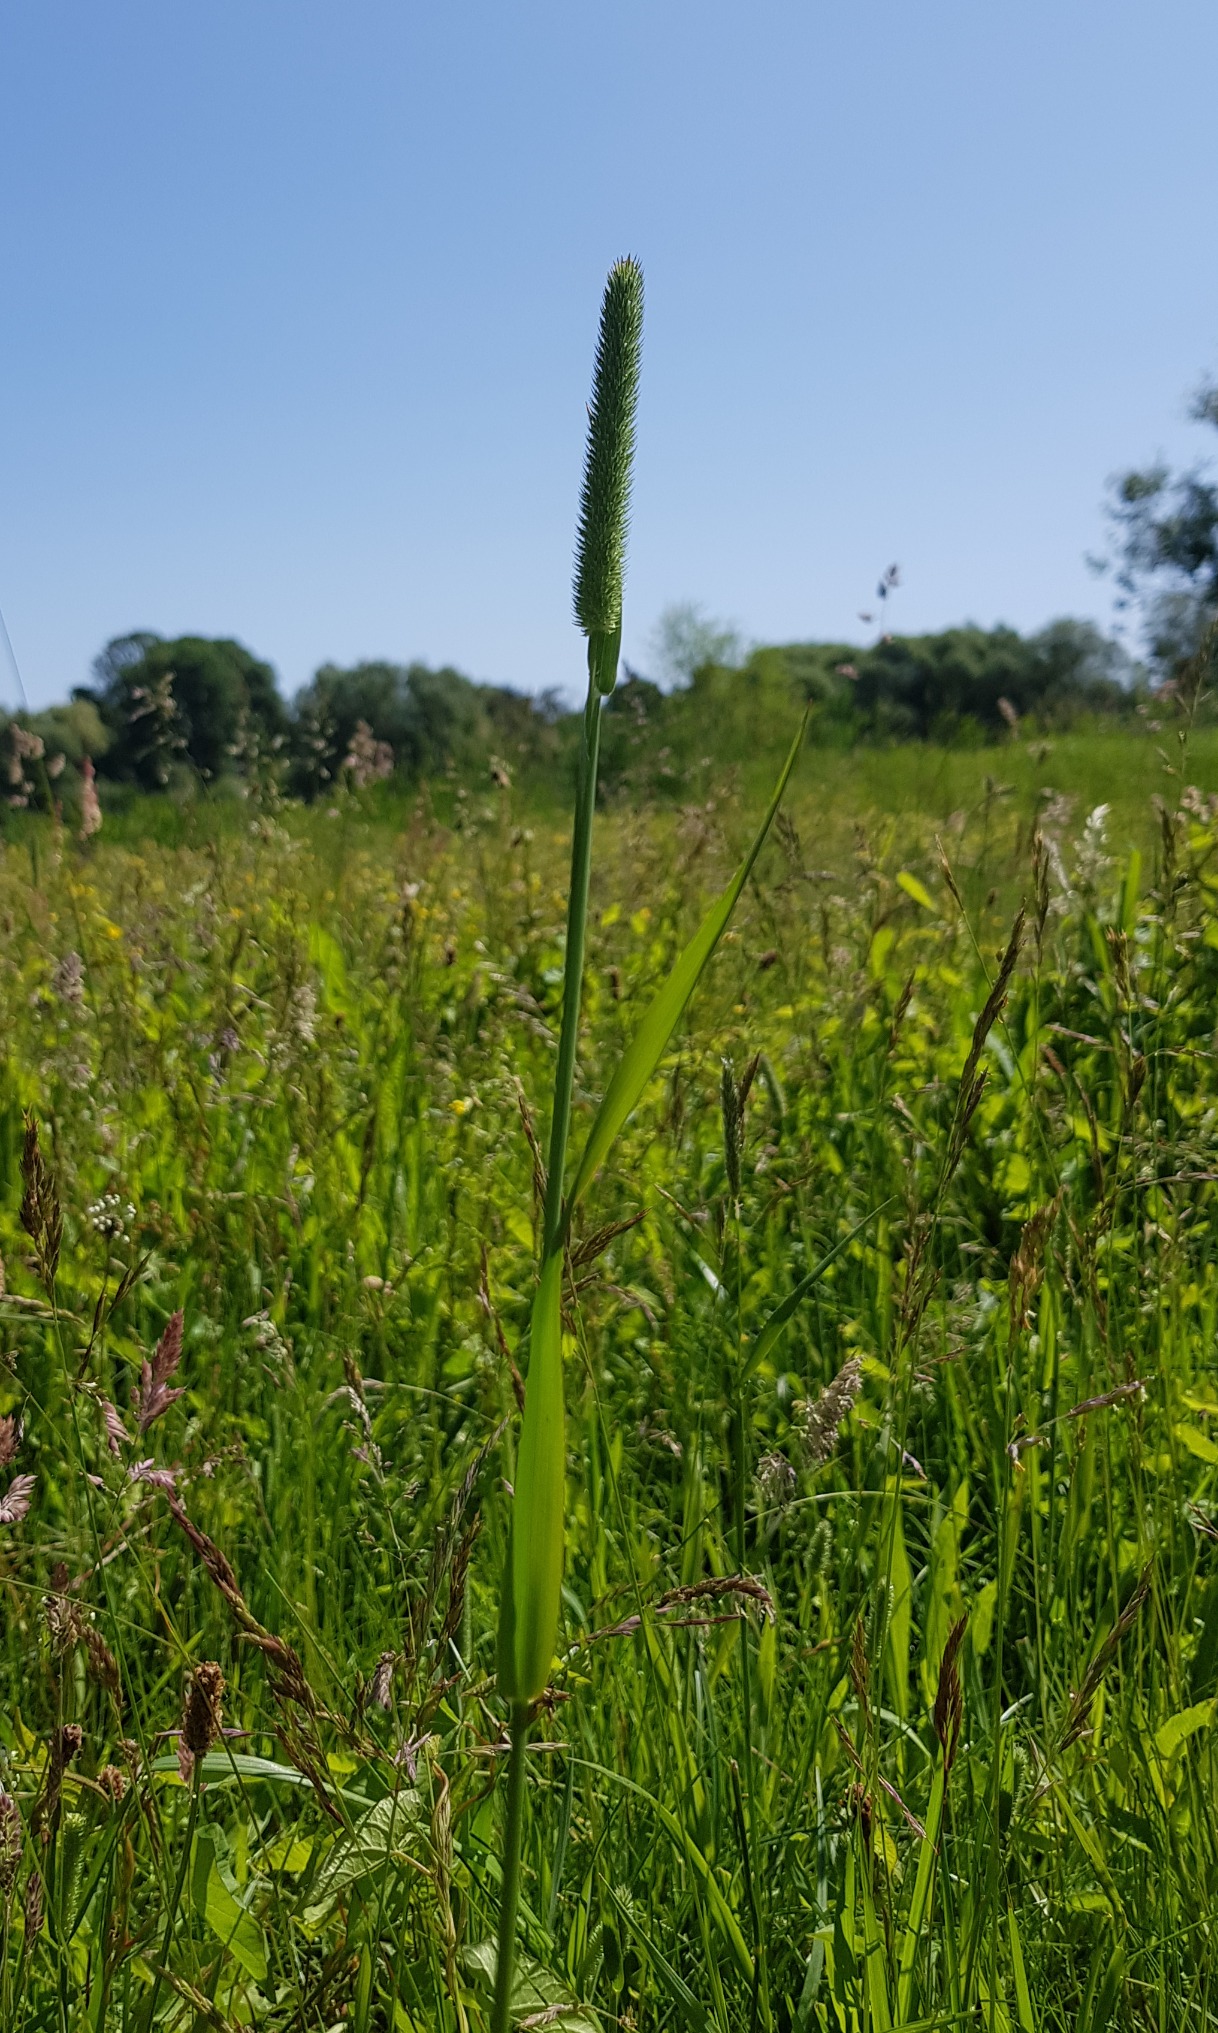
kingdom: Plantae
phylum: Tracheophyta
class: Liliopsida
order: Poales
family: Poaceae
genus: Phleum
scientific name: Phleum pratense
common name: Eng-rottehale
